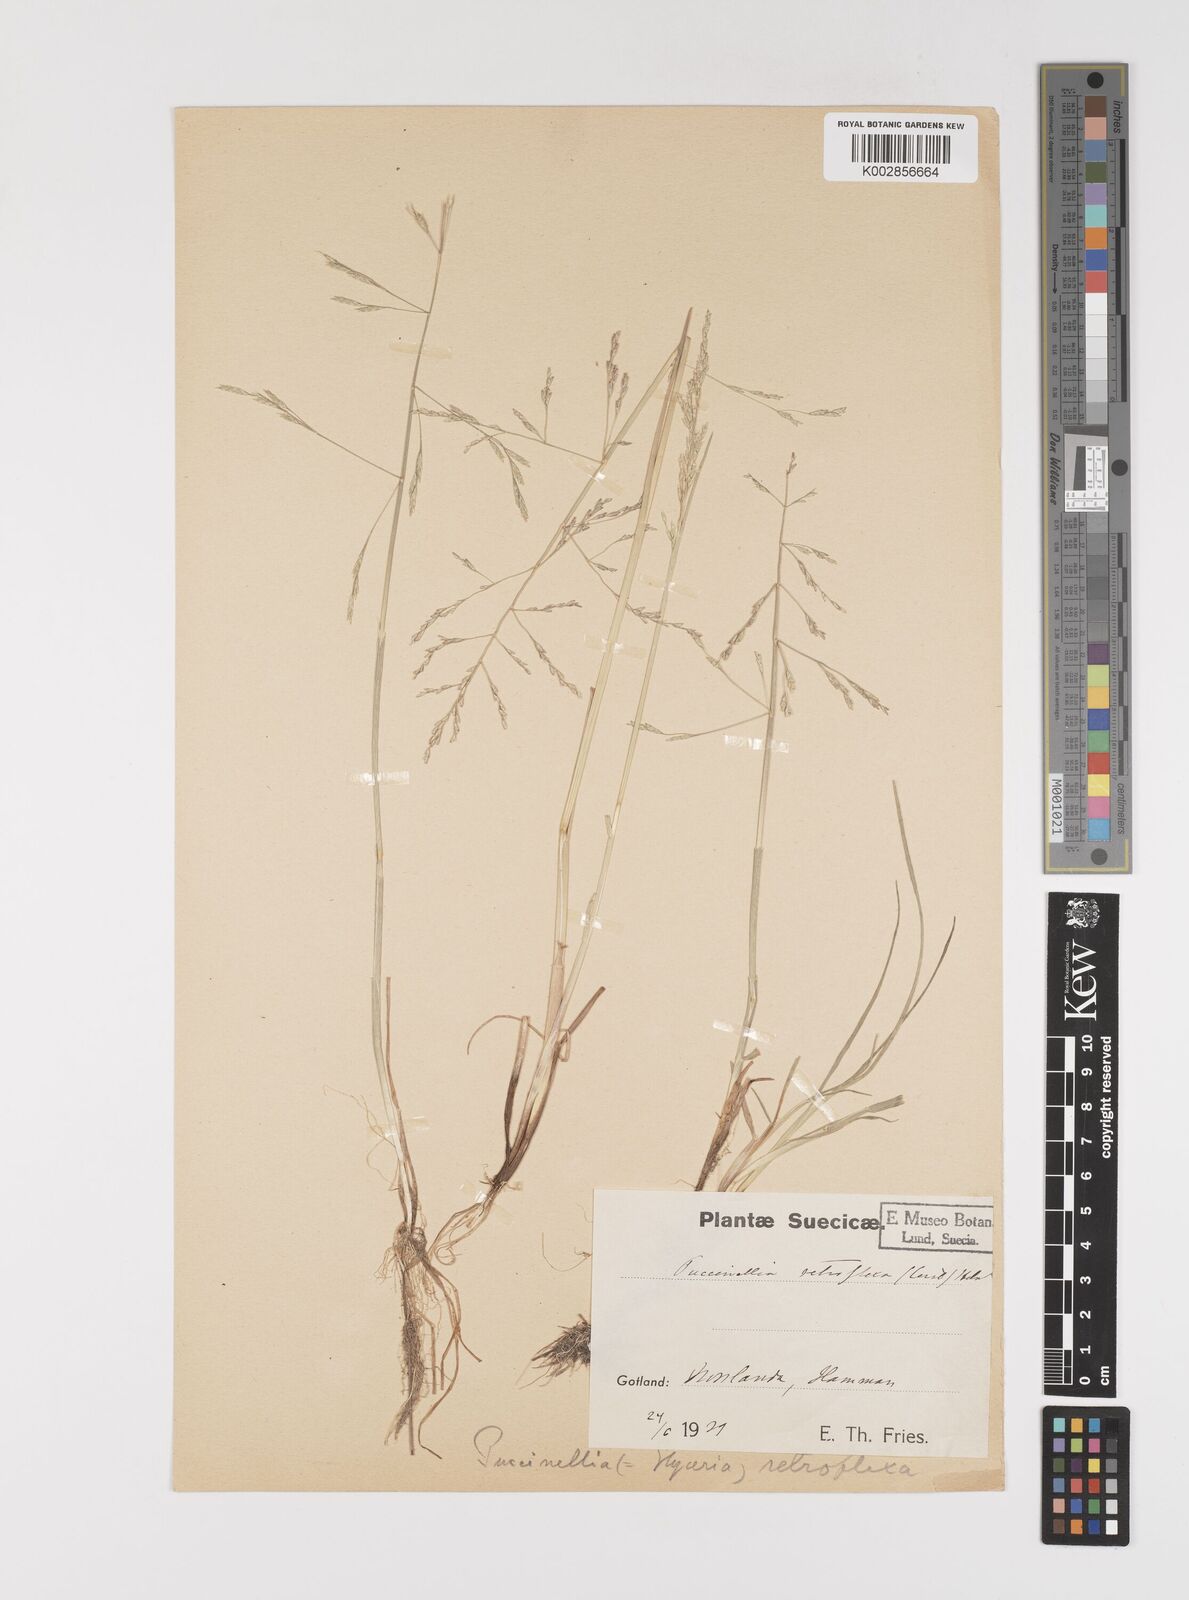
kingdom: Plantae
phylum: Tracheophyta
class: Liliopsida
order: Poales
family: Poaceae
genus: Puccinellia
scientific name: Puccinellia
